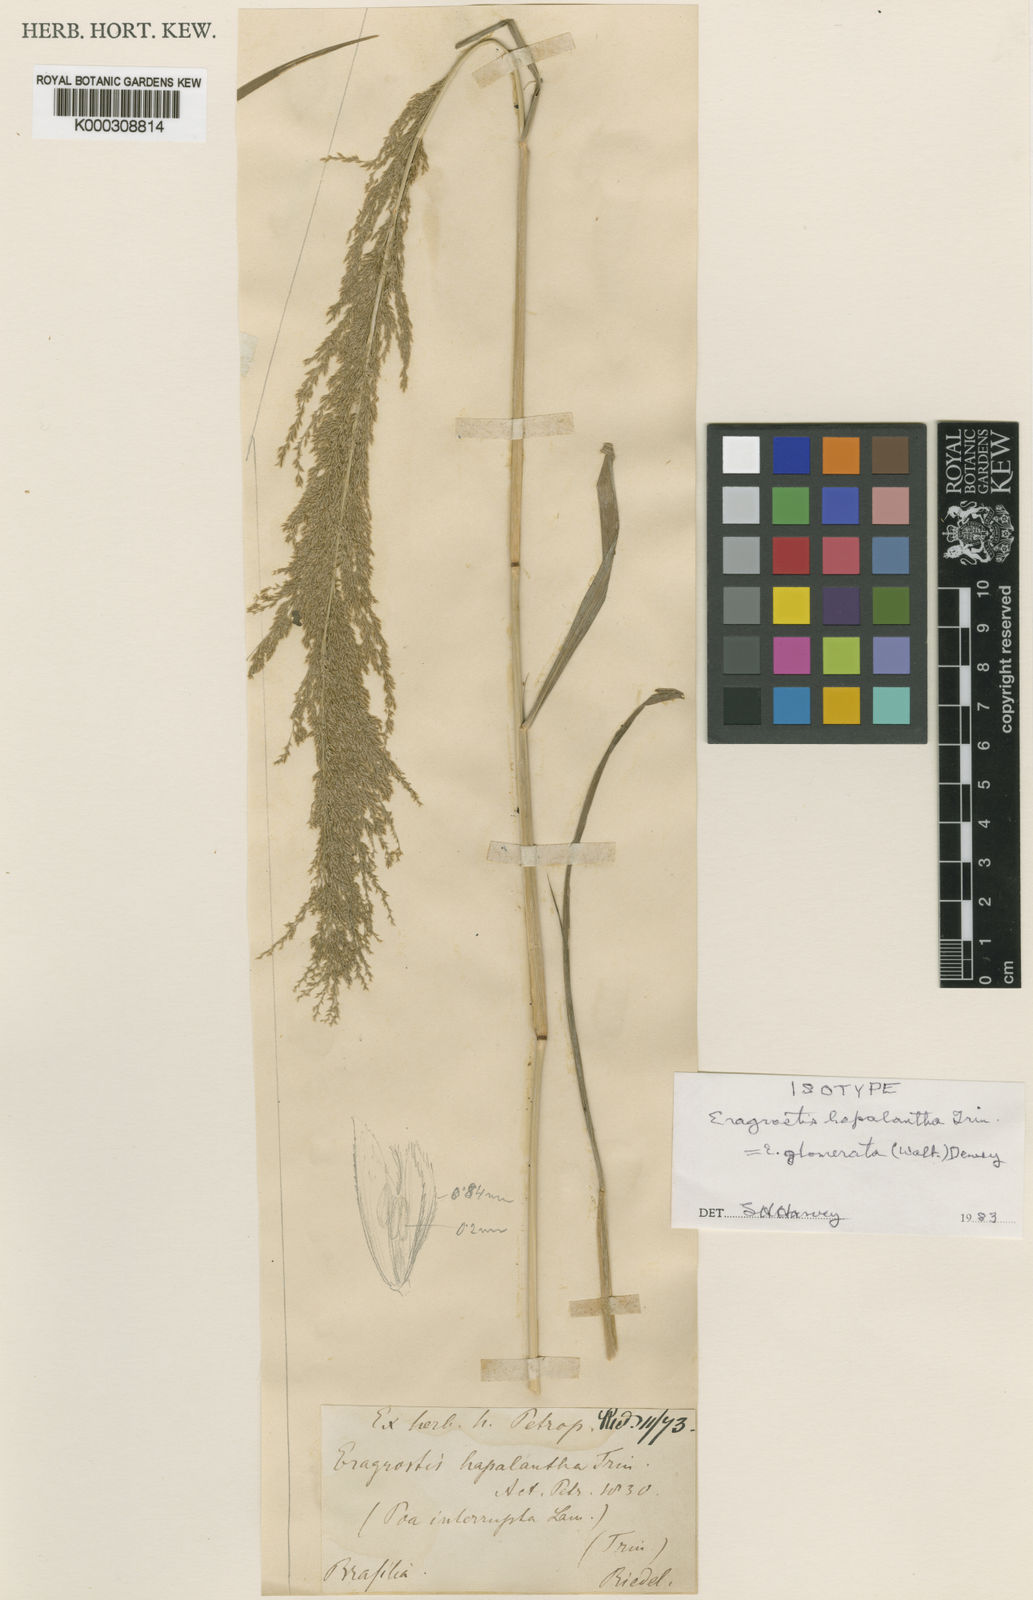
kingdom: Plantae
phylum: Tracheophyta
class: Liliopsida
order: Poales
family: Poaceae
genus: Eragrostis
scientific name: Eragrostis japonica
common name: Pond lovegrass
